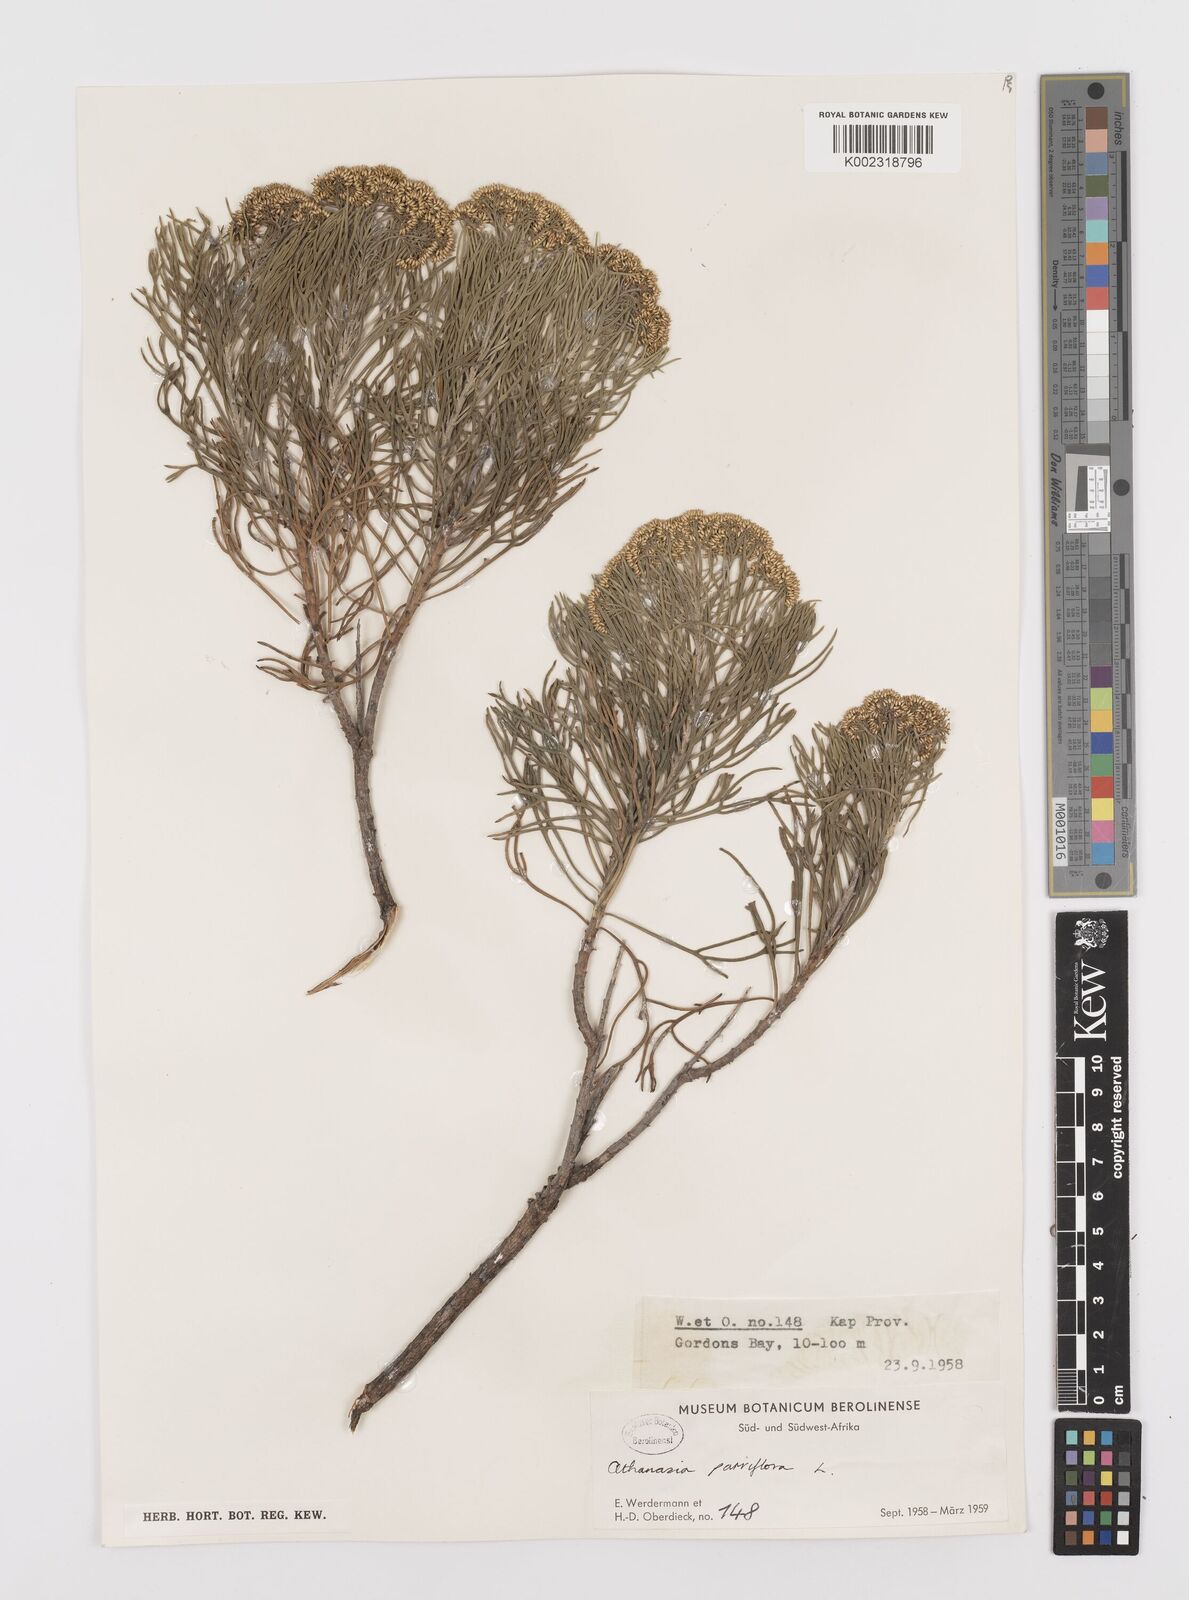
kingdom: Plantae
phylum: Tracheophyta
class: Magnoliopsida
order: Asterales
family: Asteraceae
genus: Hymenolepis
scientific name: Hymenolepis crithmifolia
